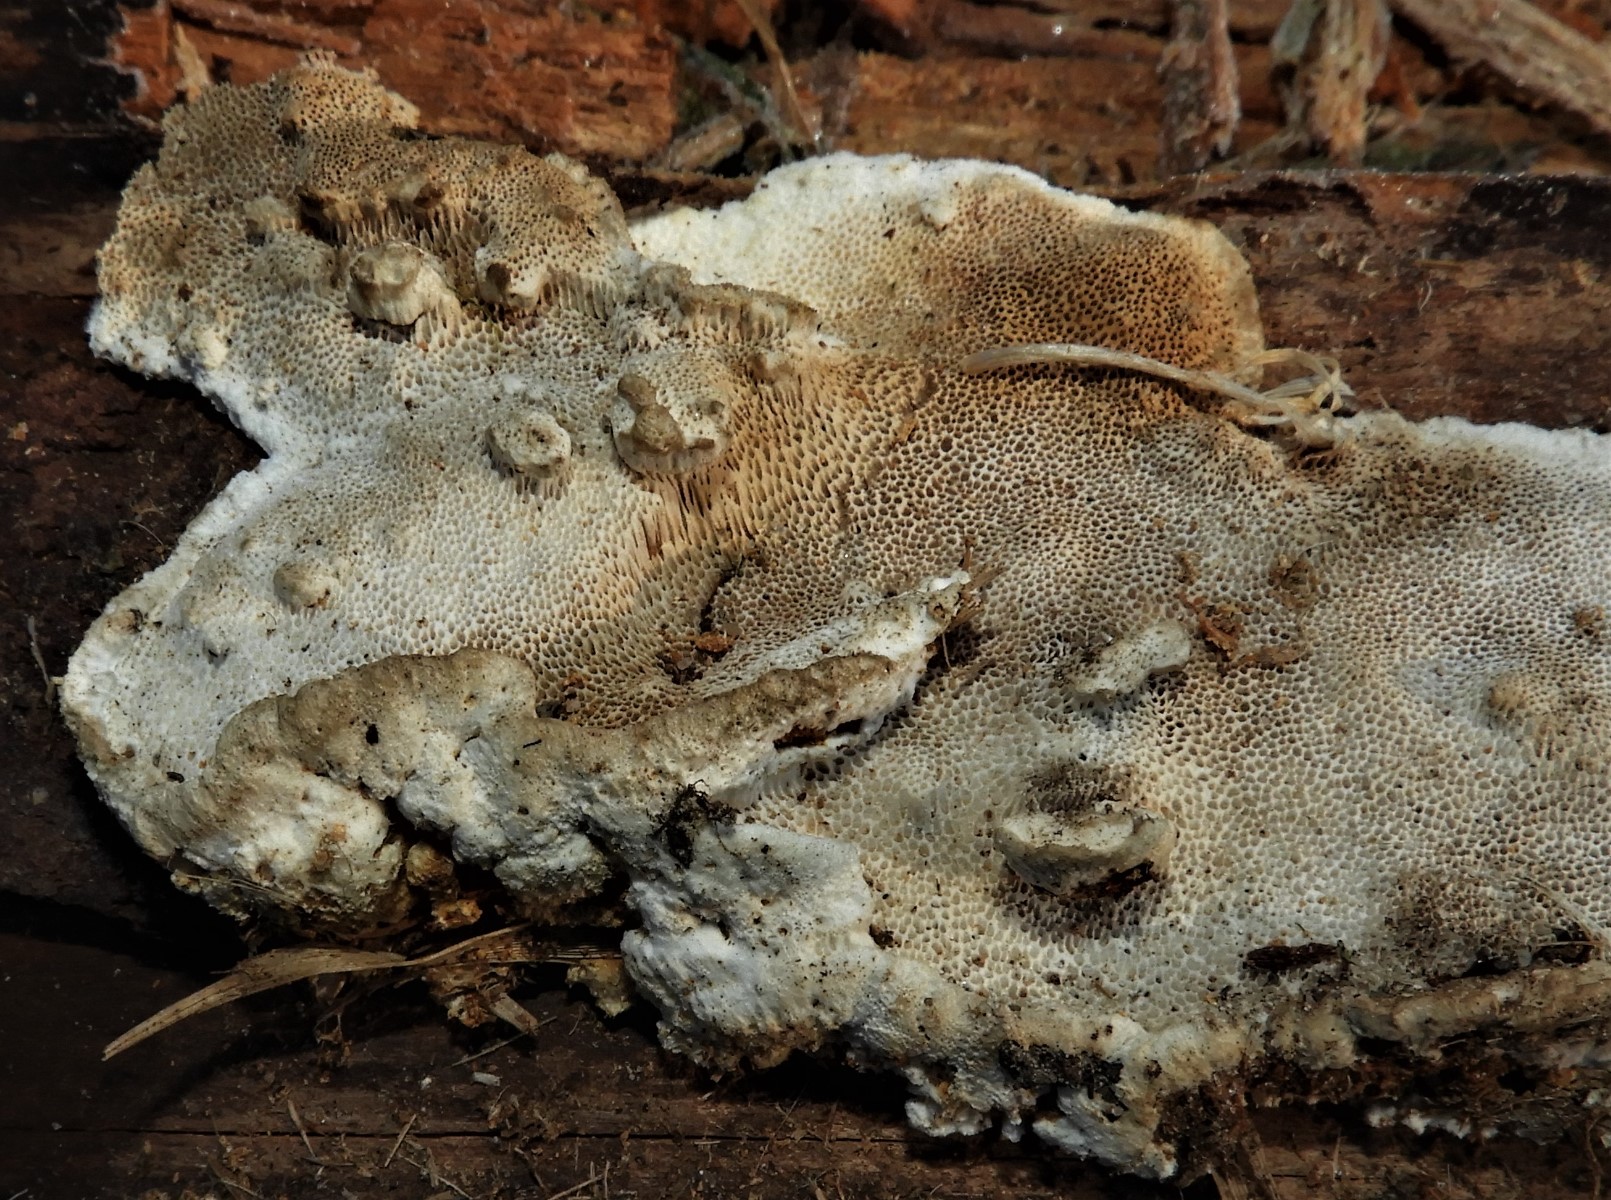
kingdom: Fungi
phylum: Basidiomycota
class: Agaricomycetes
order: Polyporales
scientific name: Polyporales
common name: poresvampordenen
